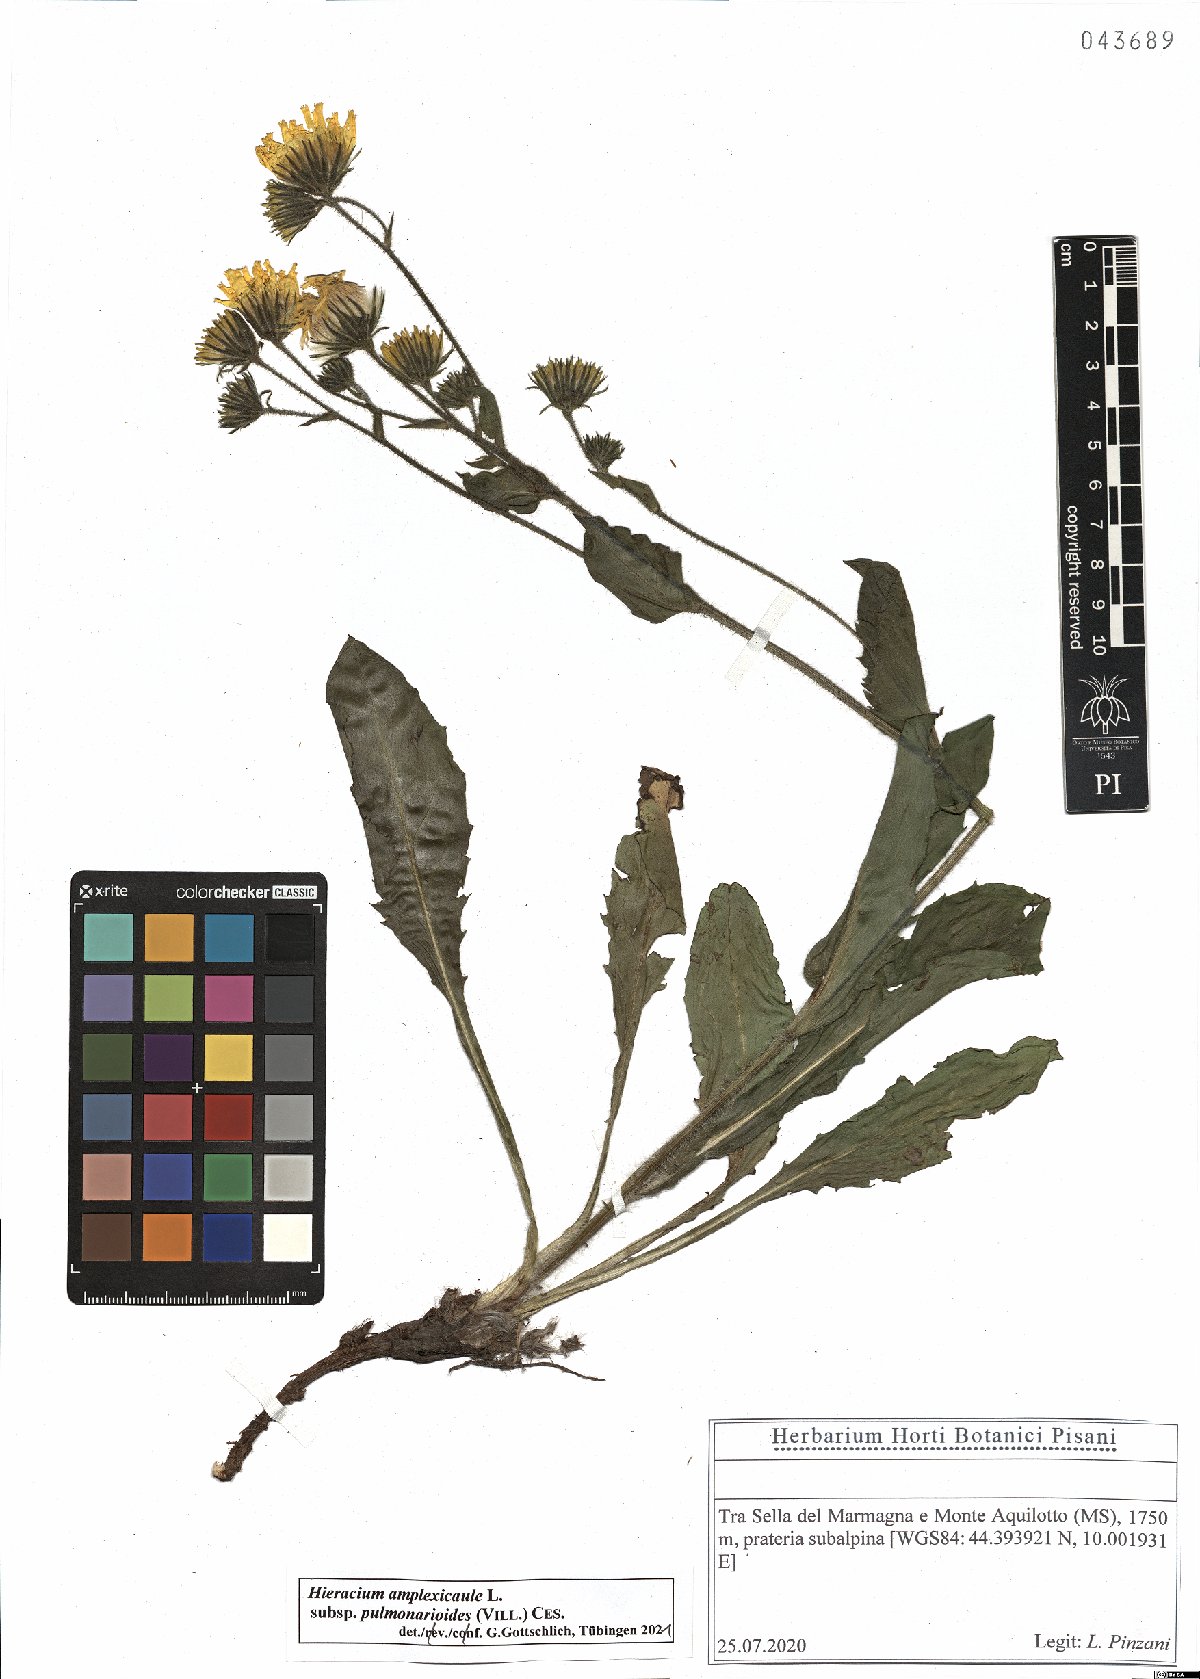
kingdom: Plantae
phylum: Tracheophyta
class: Magnoliopsida
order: Asterales
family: Asteraceae
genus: Hieracium
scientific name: Hieracium pulmonarioides
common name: Wall hawkweed
